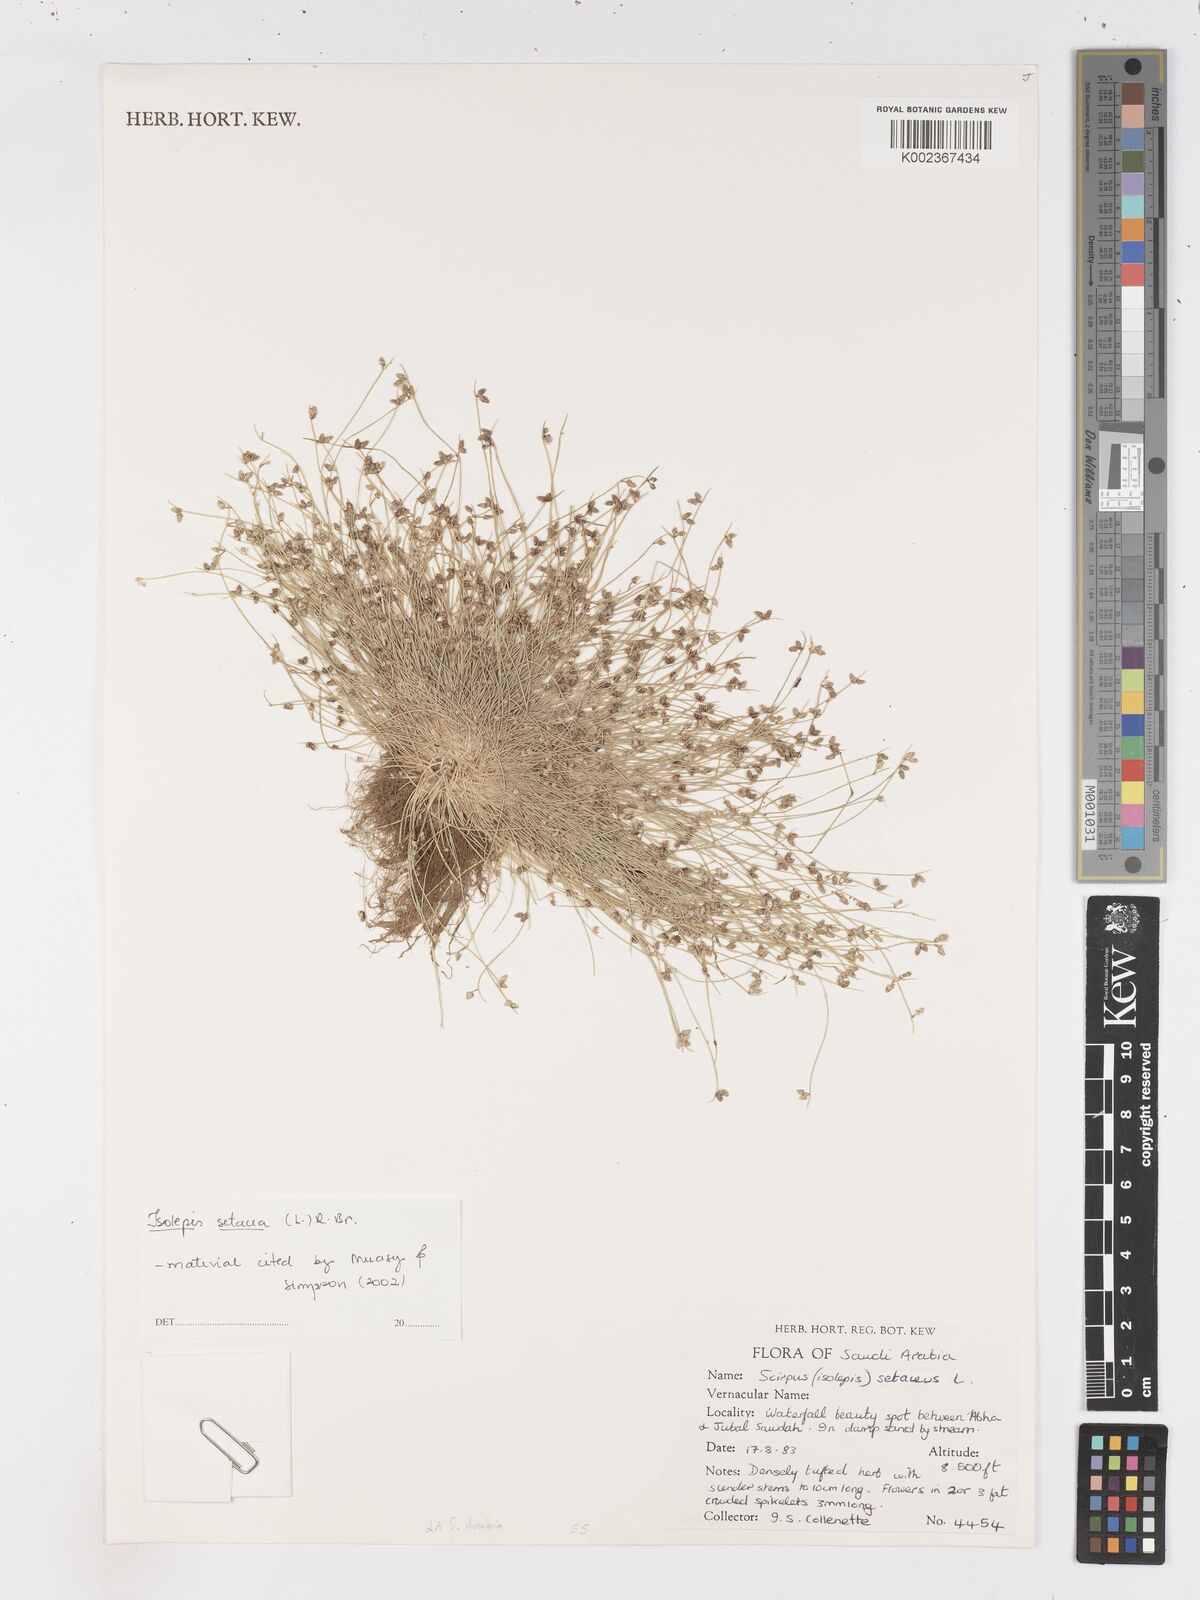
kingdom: Plantae
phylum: Tracheophyta
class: Liliopsida
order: Poales
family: Cyperaceae
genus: Isolepis
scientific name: Isolepis setacea
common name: Bristle club-rush
